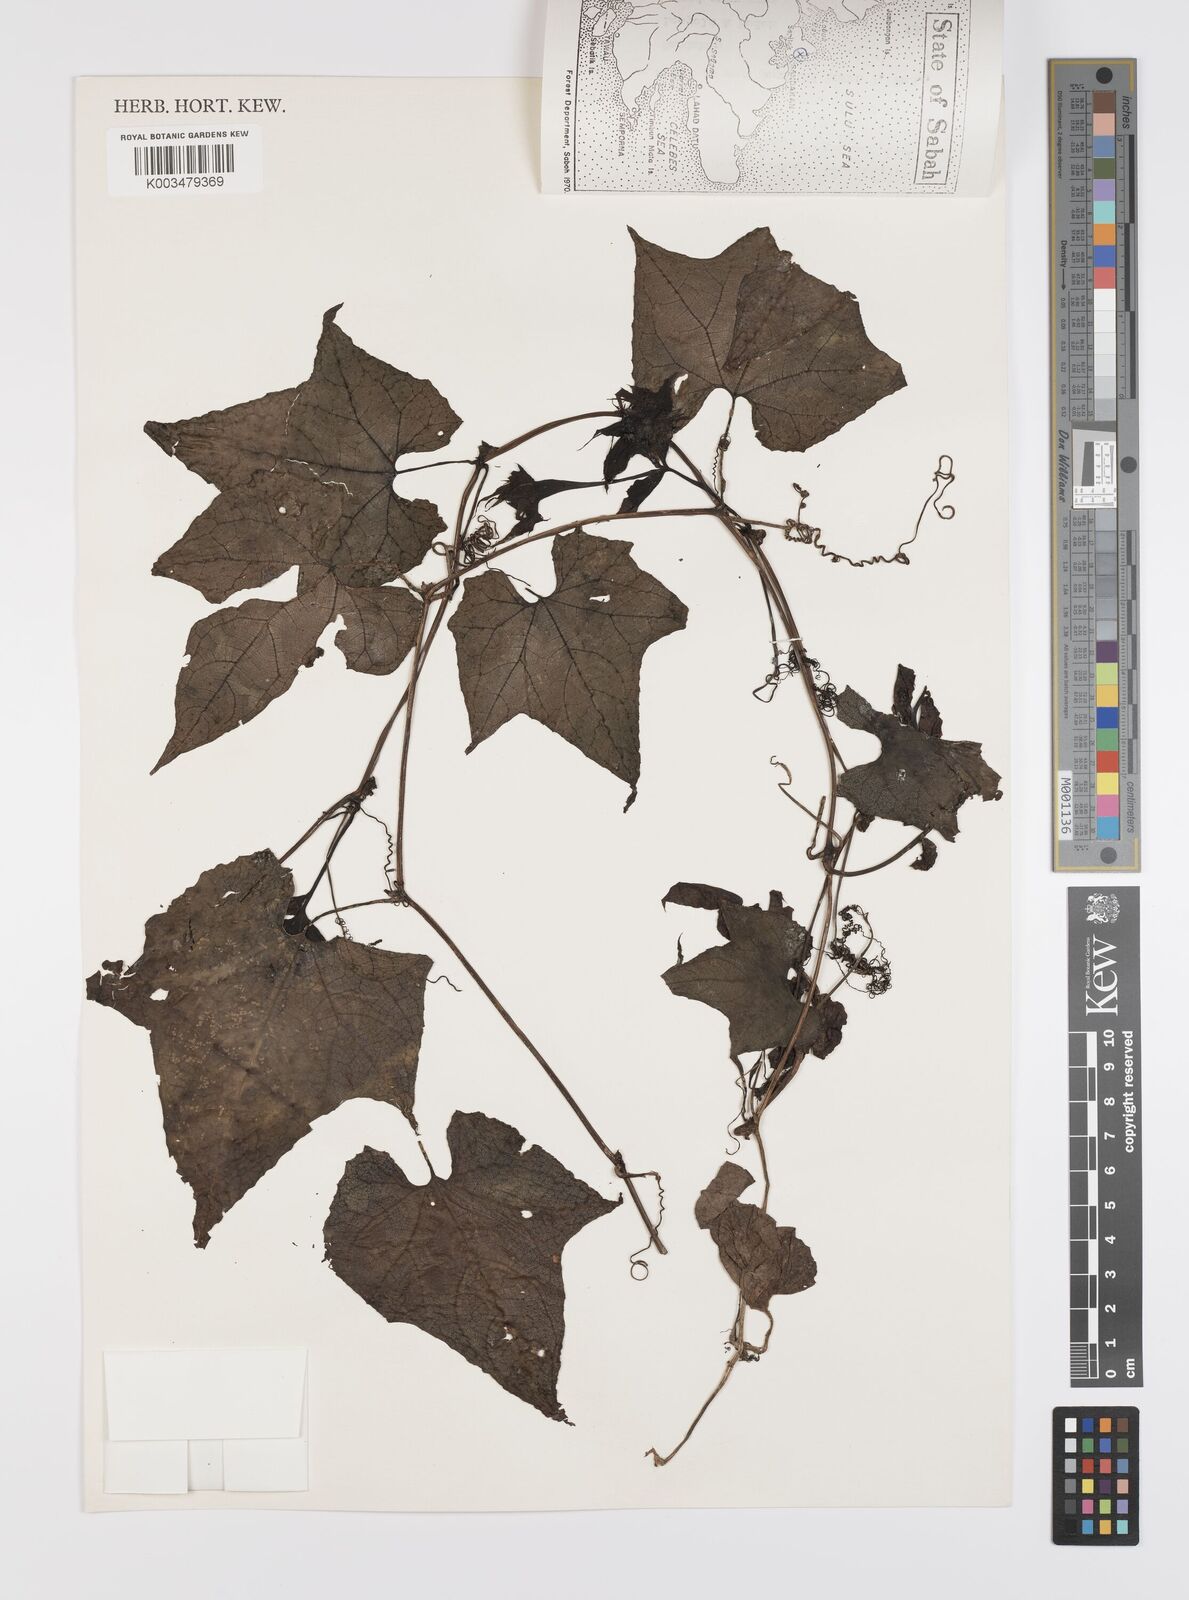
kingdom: Plantae
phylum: Tracheophyta
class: Magnoliopsida
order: Cucurbitales
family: Cucurbitaceae
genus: Trichosanthes
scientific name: Trichosanthes tricuspidata
